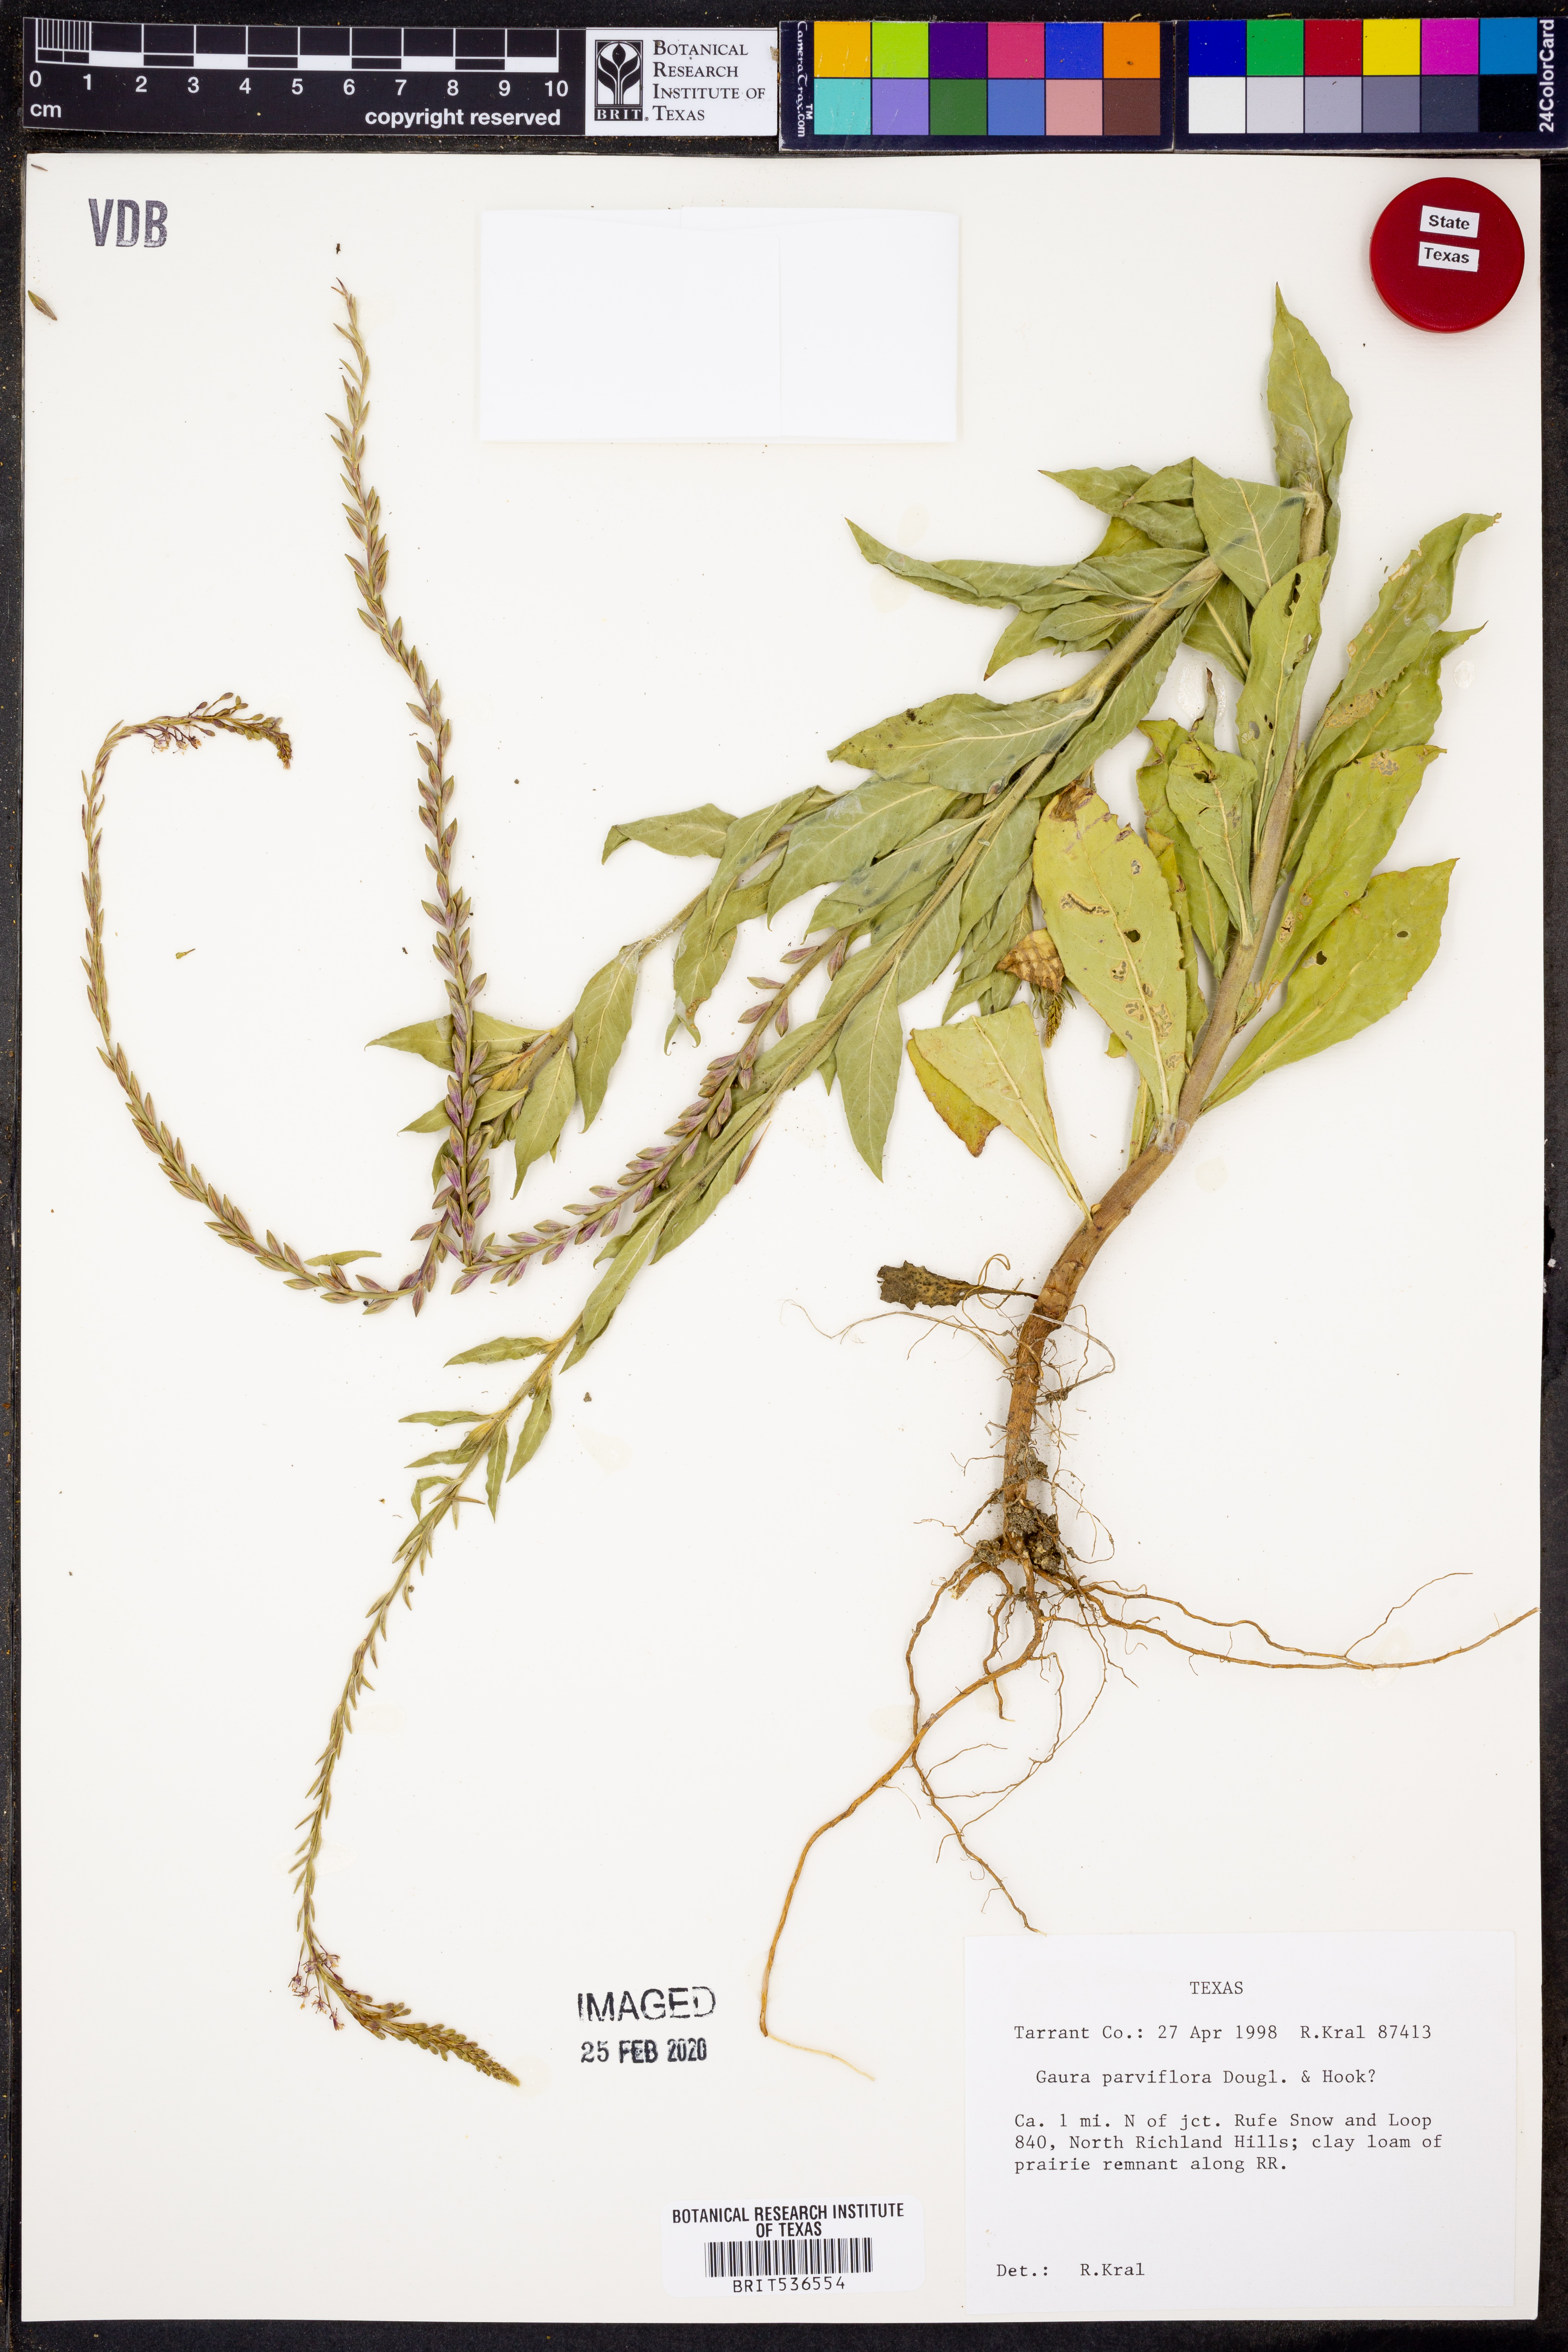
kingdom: Plantae
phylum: Tracheophyta
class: Magnoliopsida
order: Myrtales
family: Onagraceae
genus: Oenothera
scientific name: Oenothera curtiflora
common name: Velvetweed
